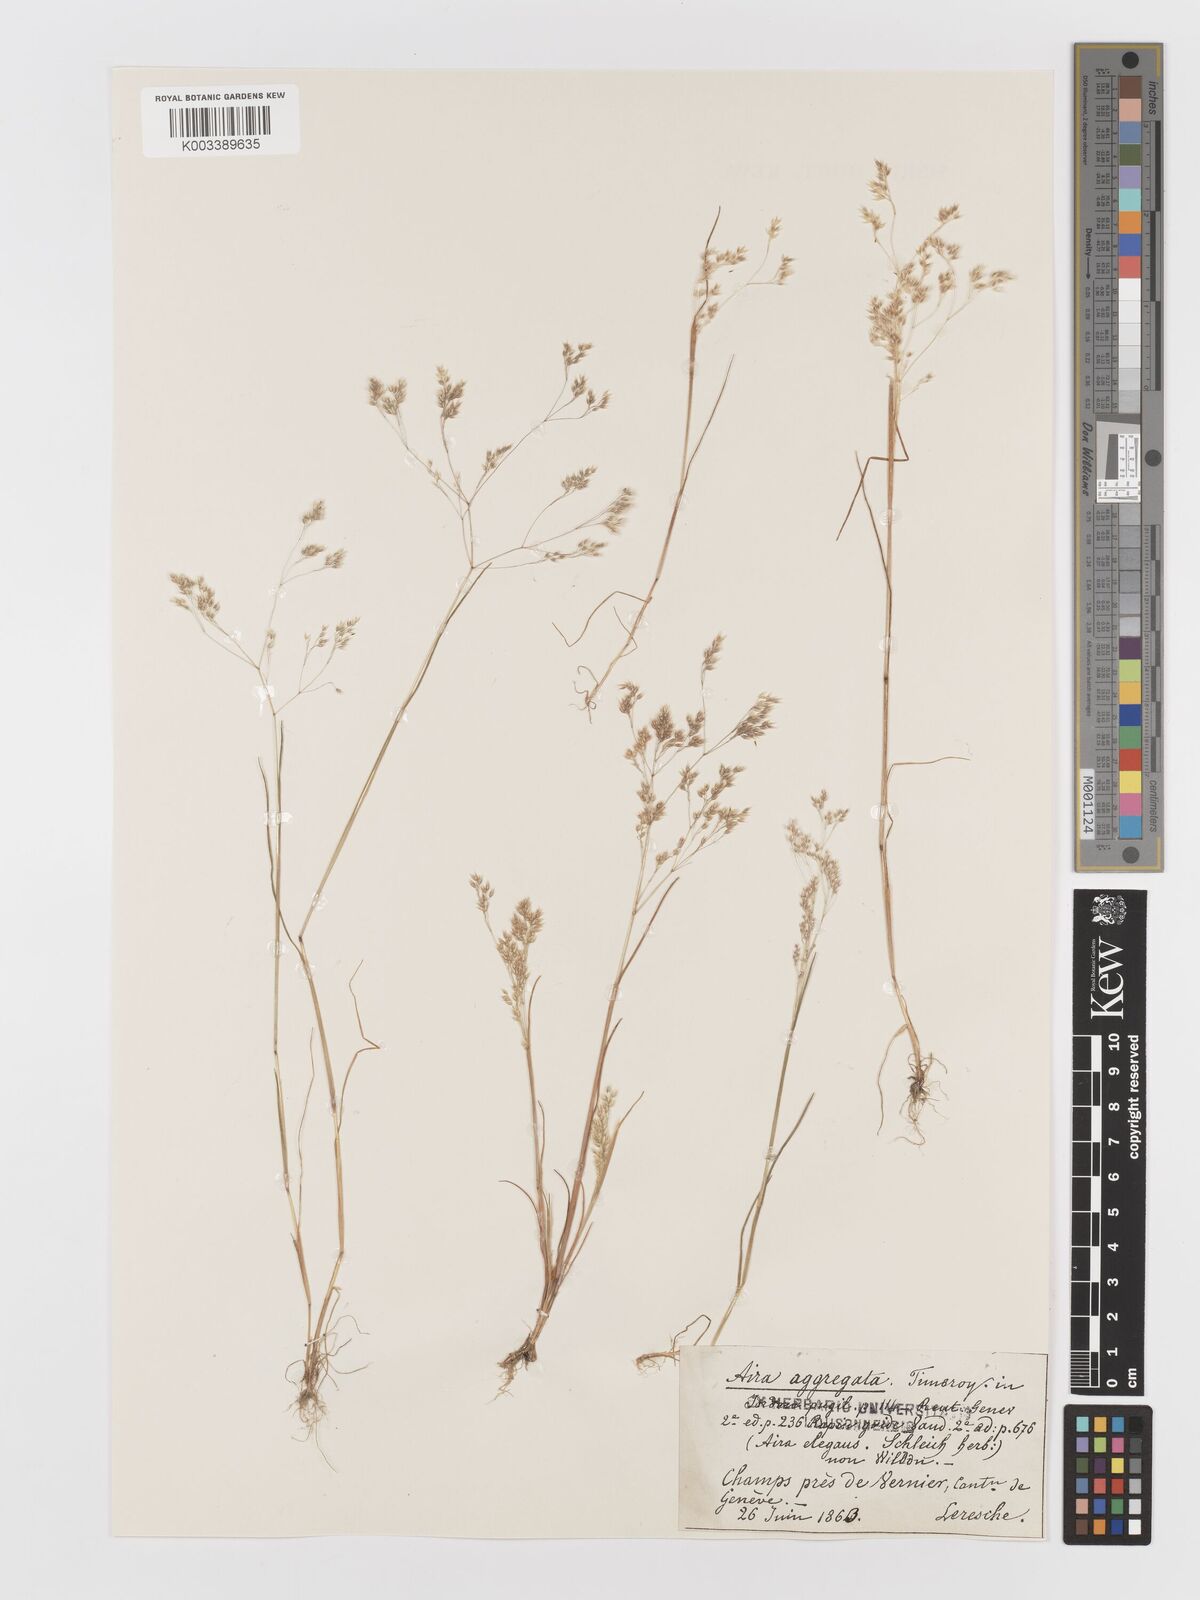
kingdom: Plantae
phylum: Tracheophyta
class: Liliopsida
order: Poales
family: Poaceae
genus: Aira
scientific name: Aira caryophyllea
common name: Silver hairgrass
